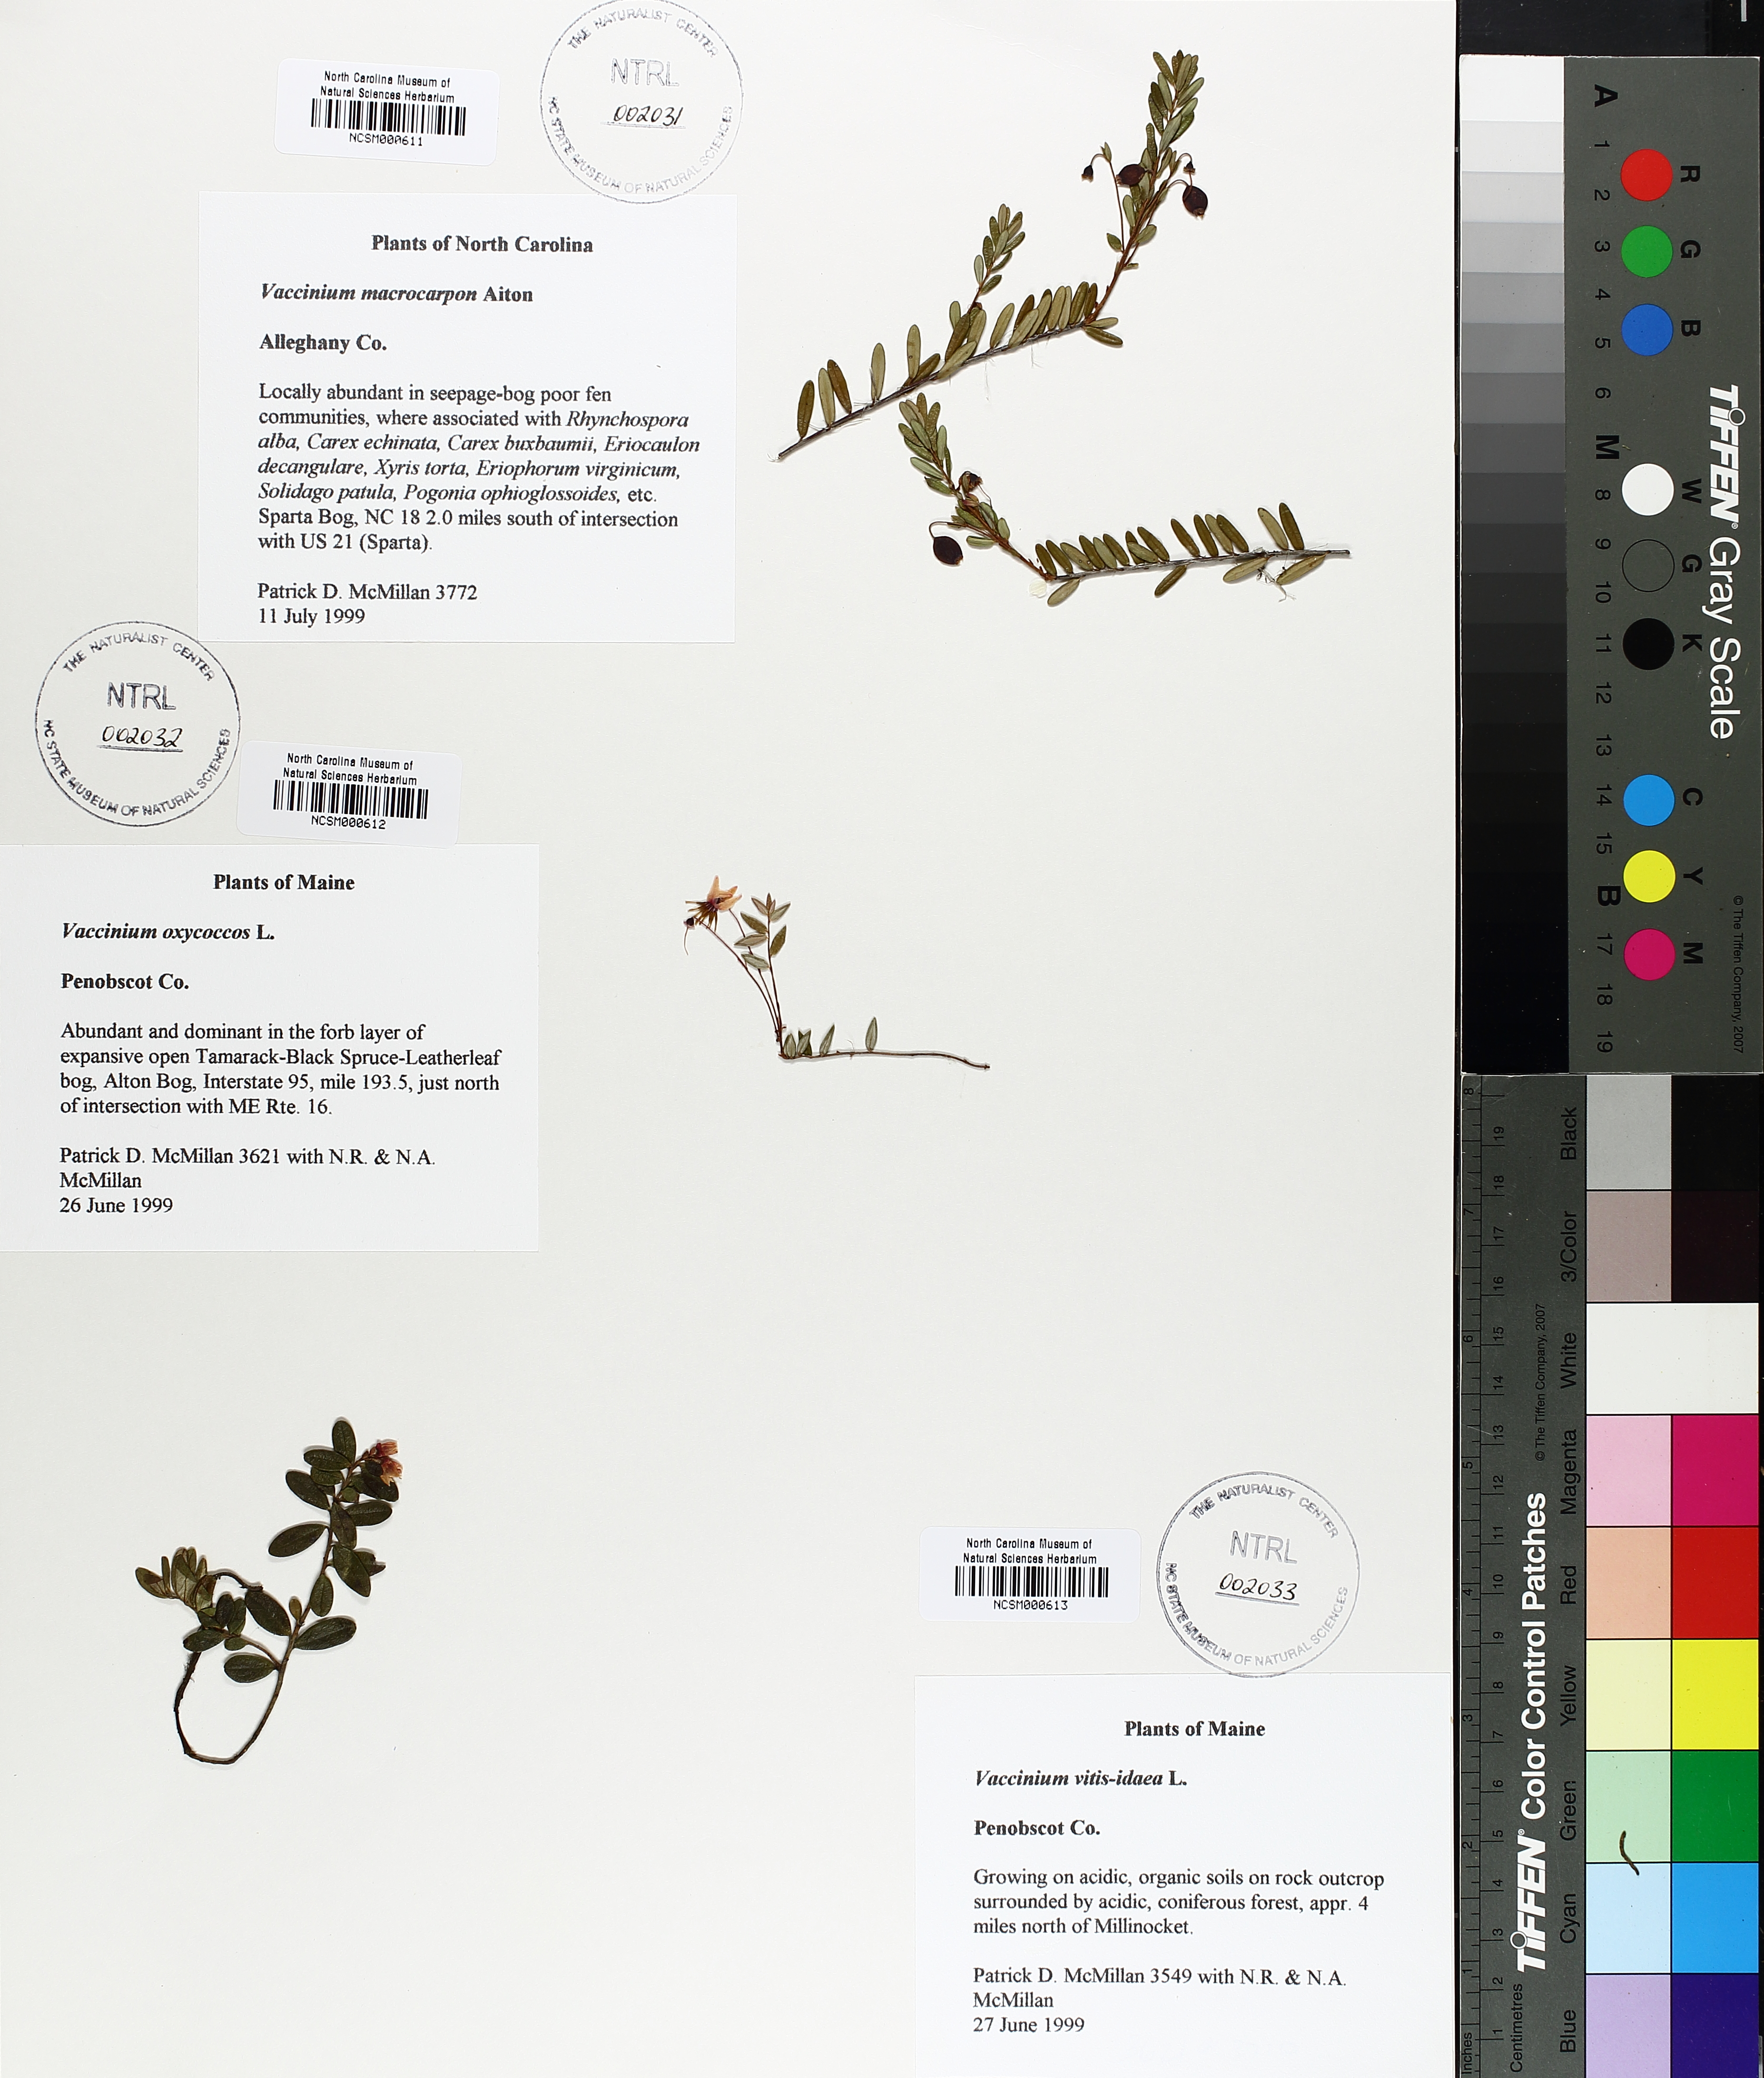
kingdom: Plantae
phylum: Tracheophyta
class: Magnoliopsida
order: Ericales
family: Ericaceae
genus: Vaccinium
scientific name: Vaccinium macrocarpon
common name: American cranberry
